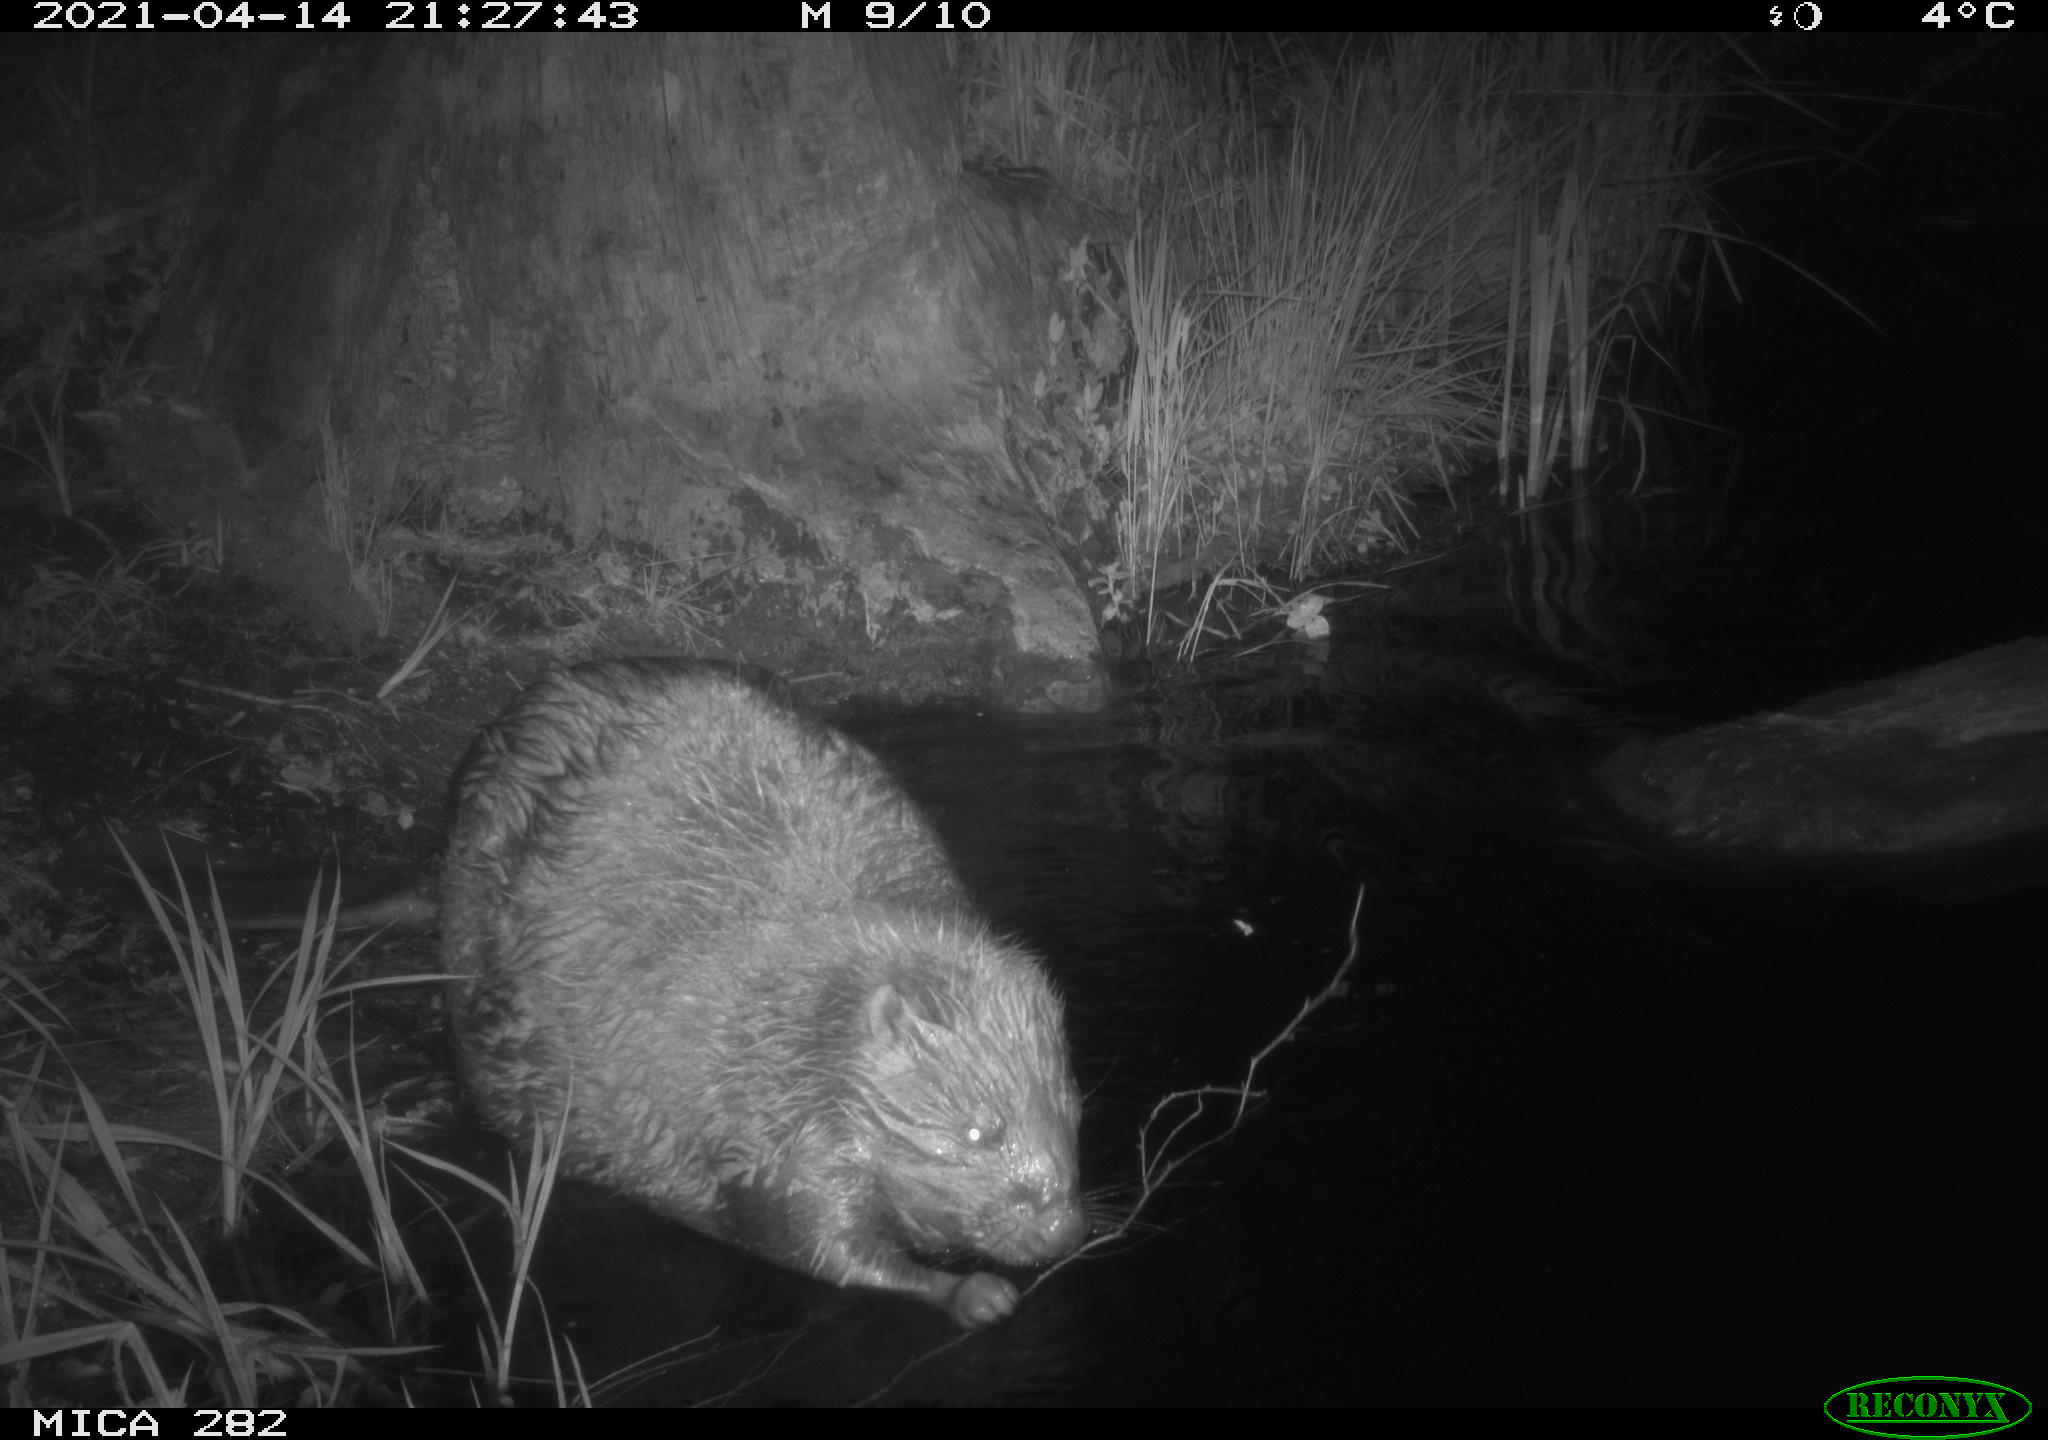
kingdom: Animalia
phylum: Chordata
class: Mammalia
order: Rodentia
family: Castoridae
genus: Castor
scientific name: Castor fiber
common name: Eurasian beaver
